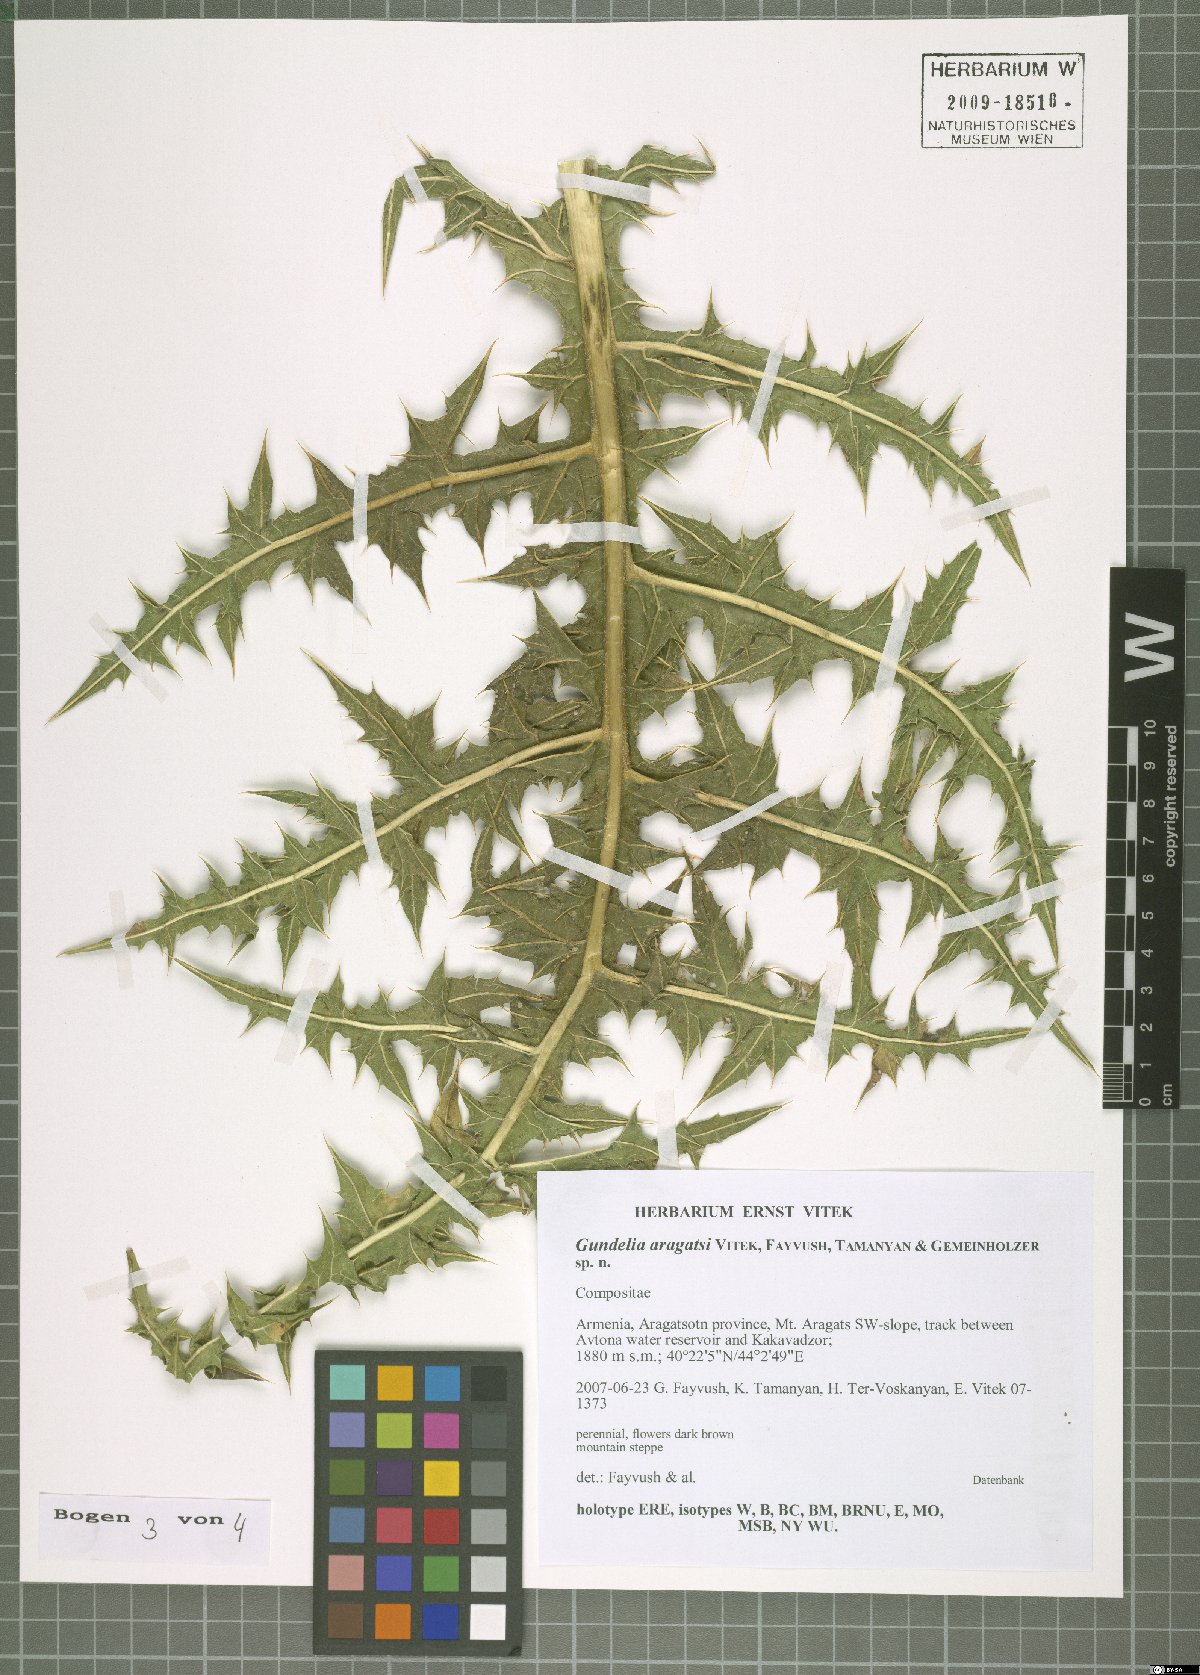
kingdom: Plantae
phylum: Tracheophyta
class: Magnoliopsida
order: Asterales
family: Asteraceae
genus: Gundelia
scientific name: Gundelia aragatsi
